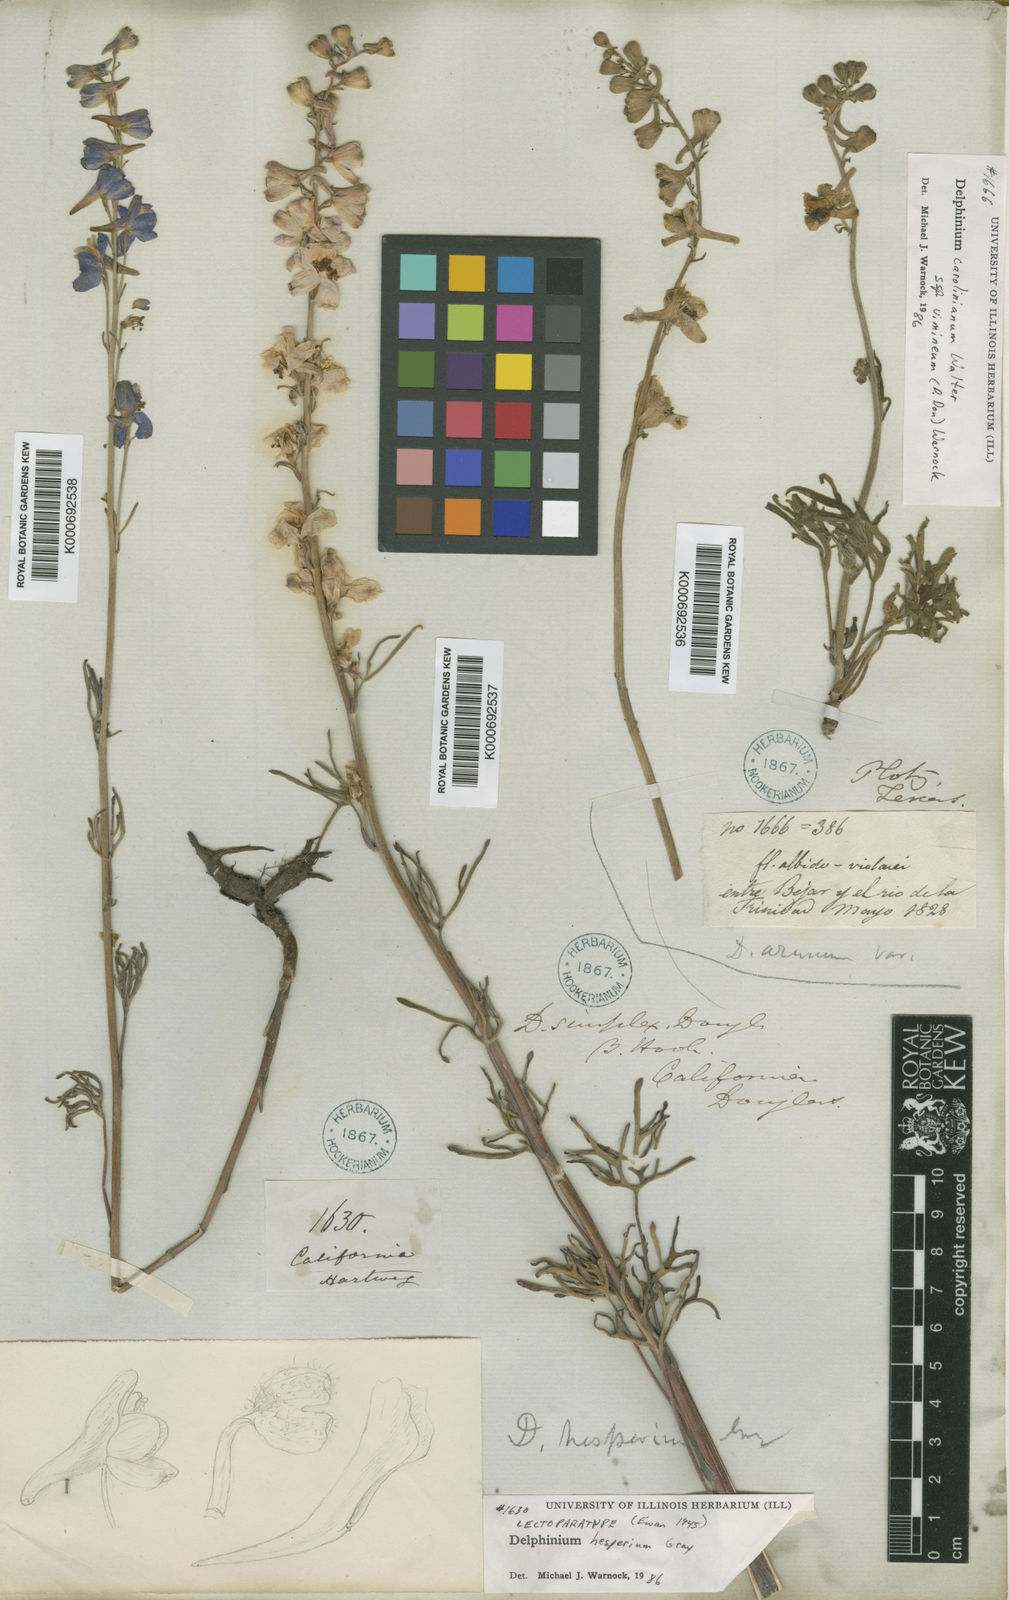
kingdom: Plantae
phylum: Tracheophyta
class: Magnoliopsida
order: Ranunculales
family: Ranunculaceae
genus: Delphinium
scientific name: Delphinium hesperium
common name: Western larkspur
